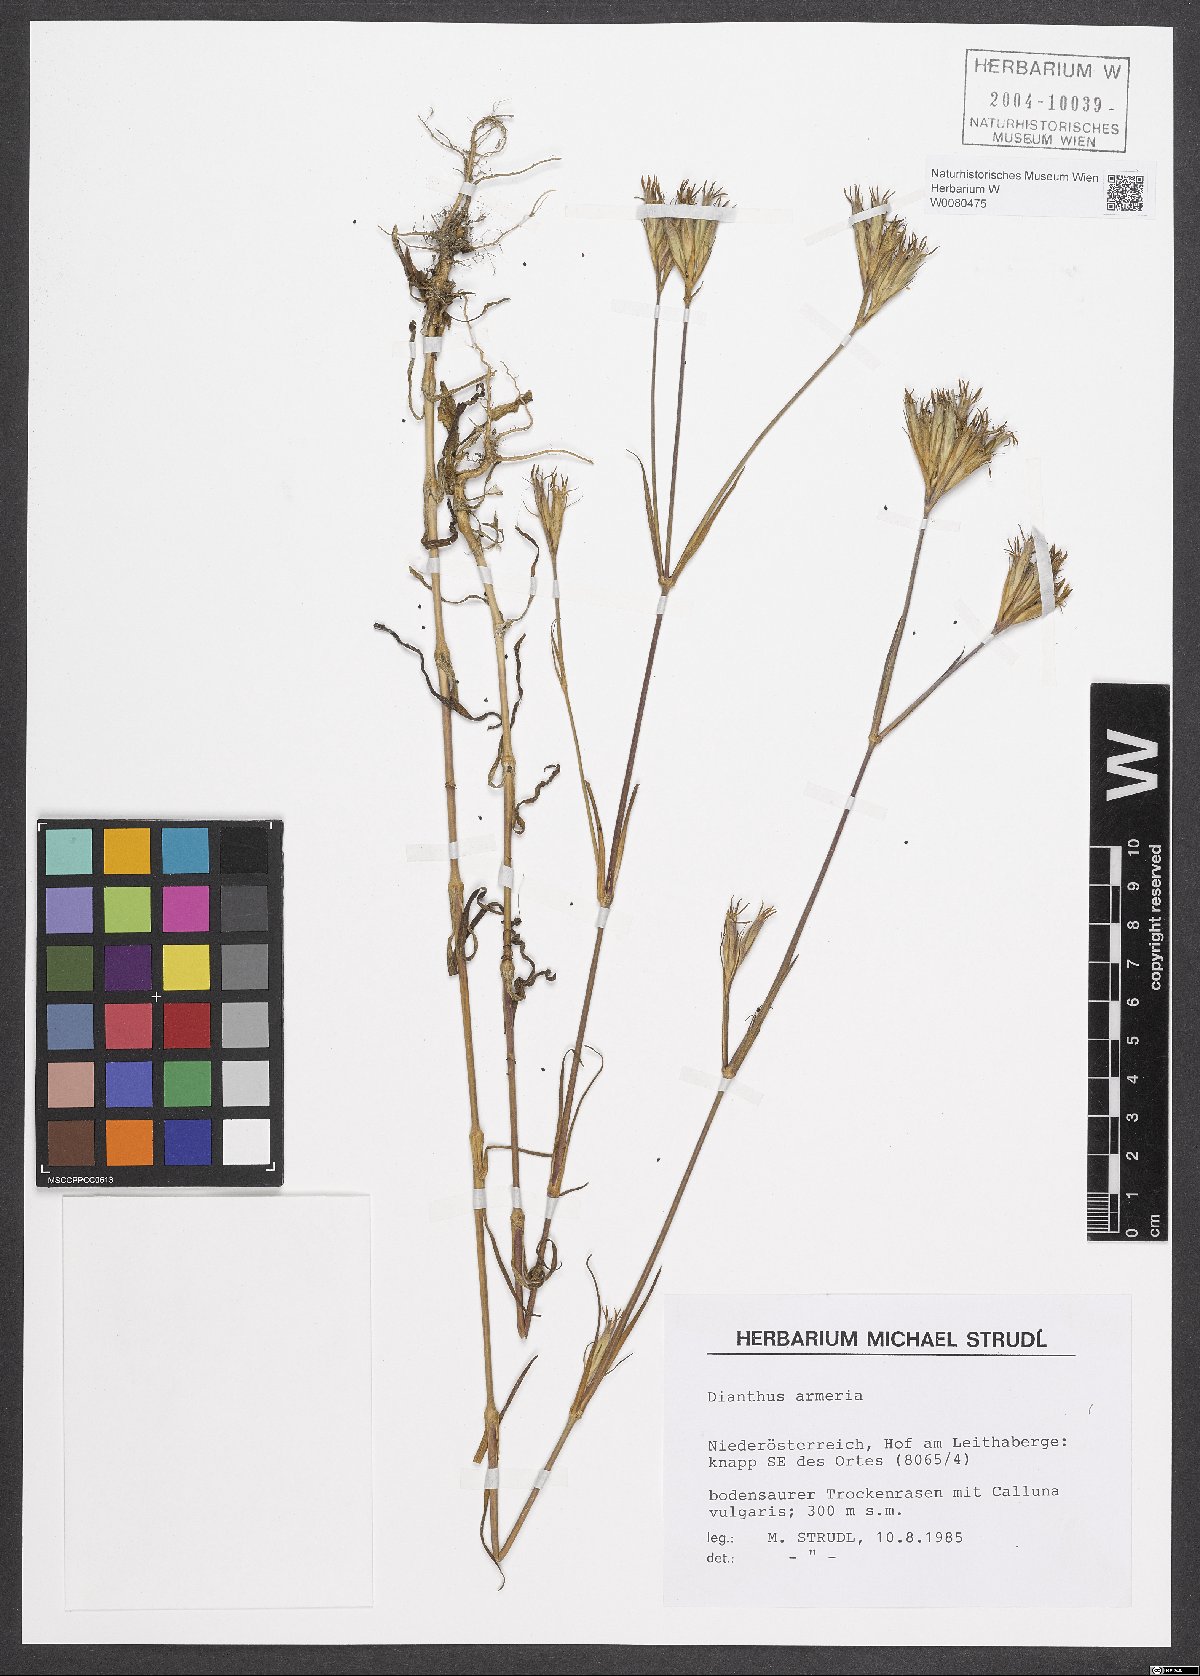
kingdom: Plantae
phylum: Tracheophyta
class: Magnoliopsida
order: Caryophyllales
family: Caryophyllaceae
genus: Dianthus
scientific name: Dianthus armeria
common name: Deptford pink
